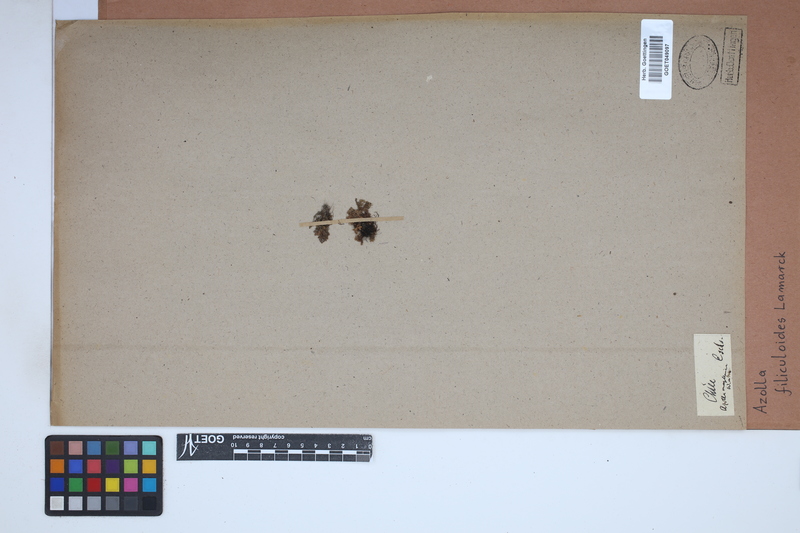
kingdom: Plantae
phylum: Tracheophyta
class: Polypodiopsida
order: Salviniales
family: Salviniaceae
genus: Azolla
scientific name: Azolla filiculoides
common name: Water fern
